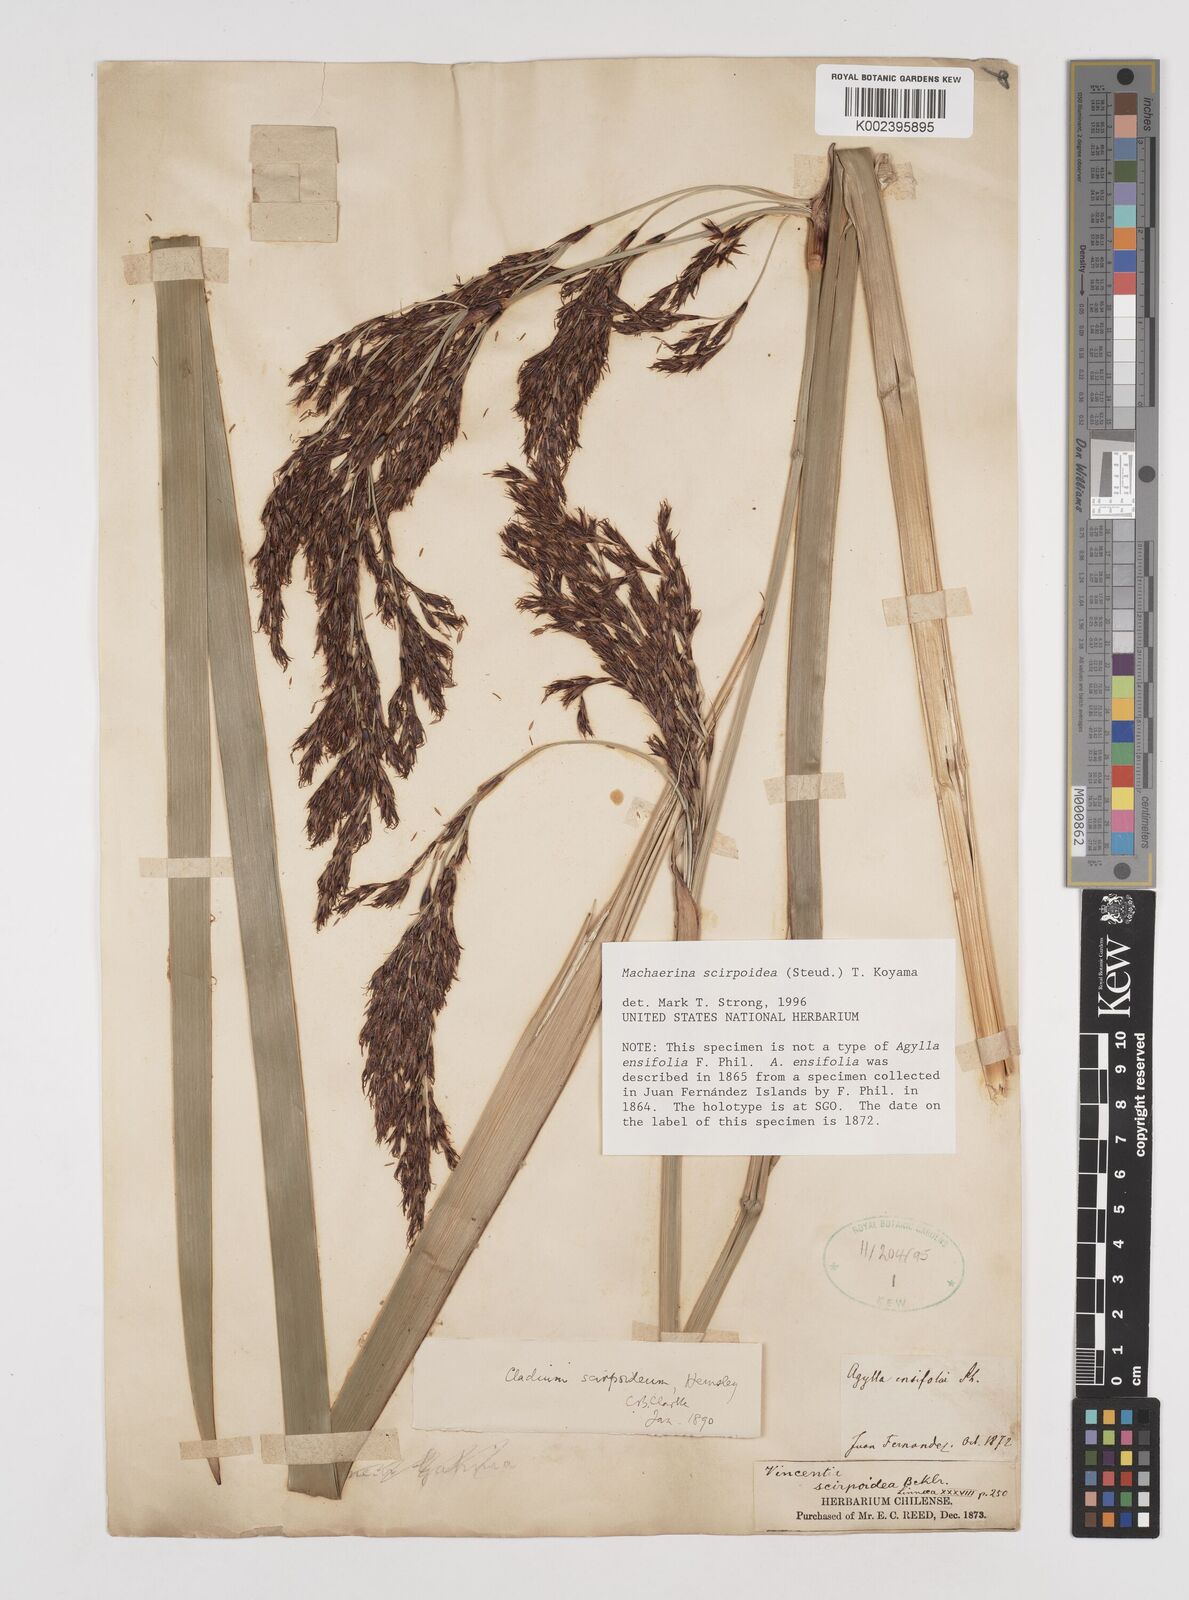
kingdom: Plantae
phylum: Tracheophyta
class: Liliopsida
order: Poales
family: Cyperaceae
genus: Machaerina
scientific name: Machaerina scirpoidea
